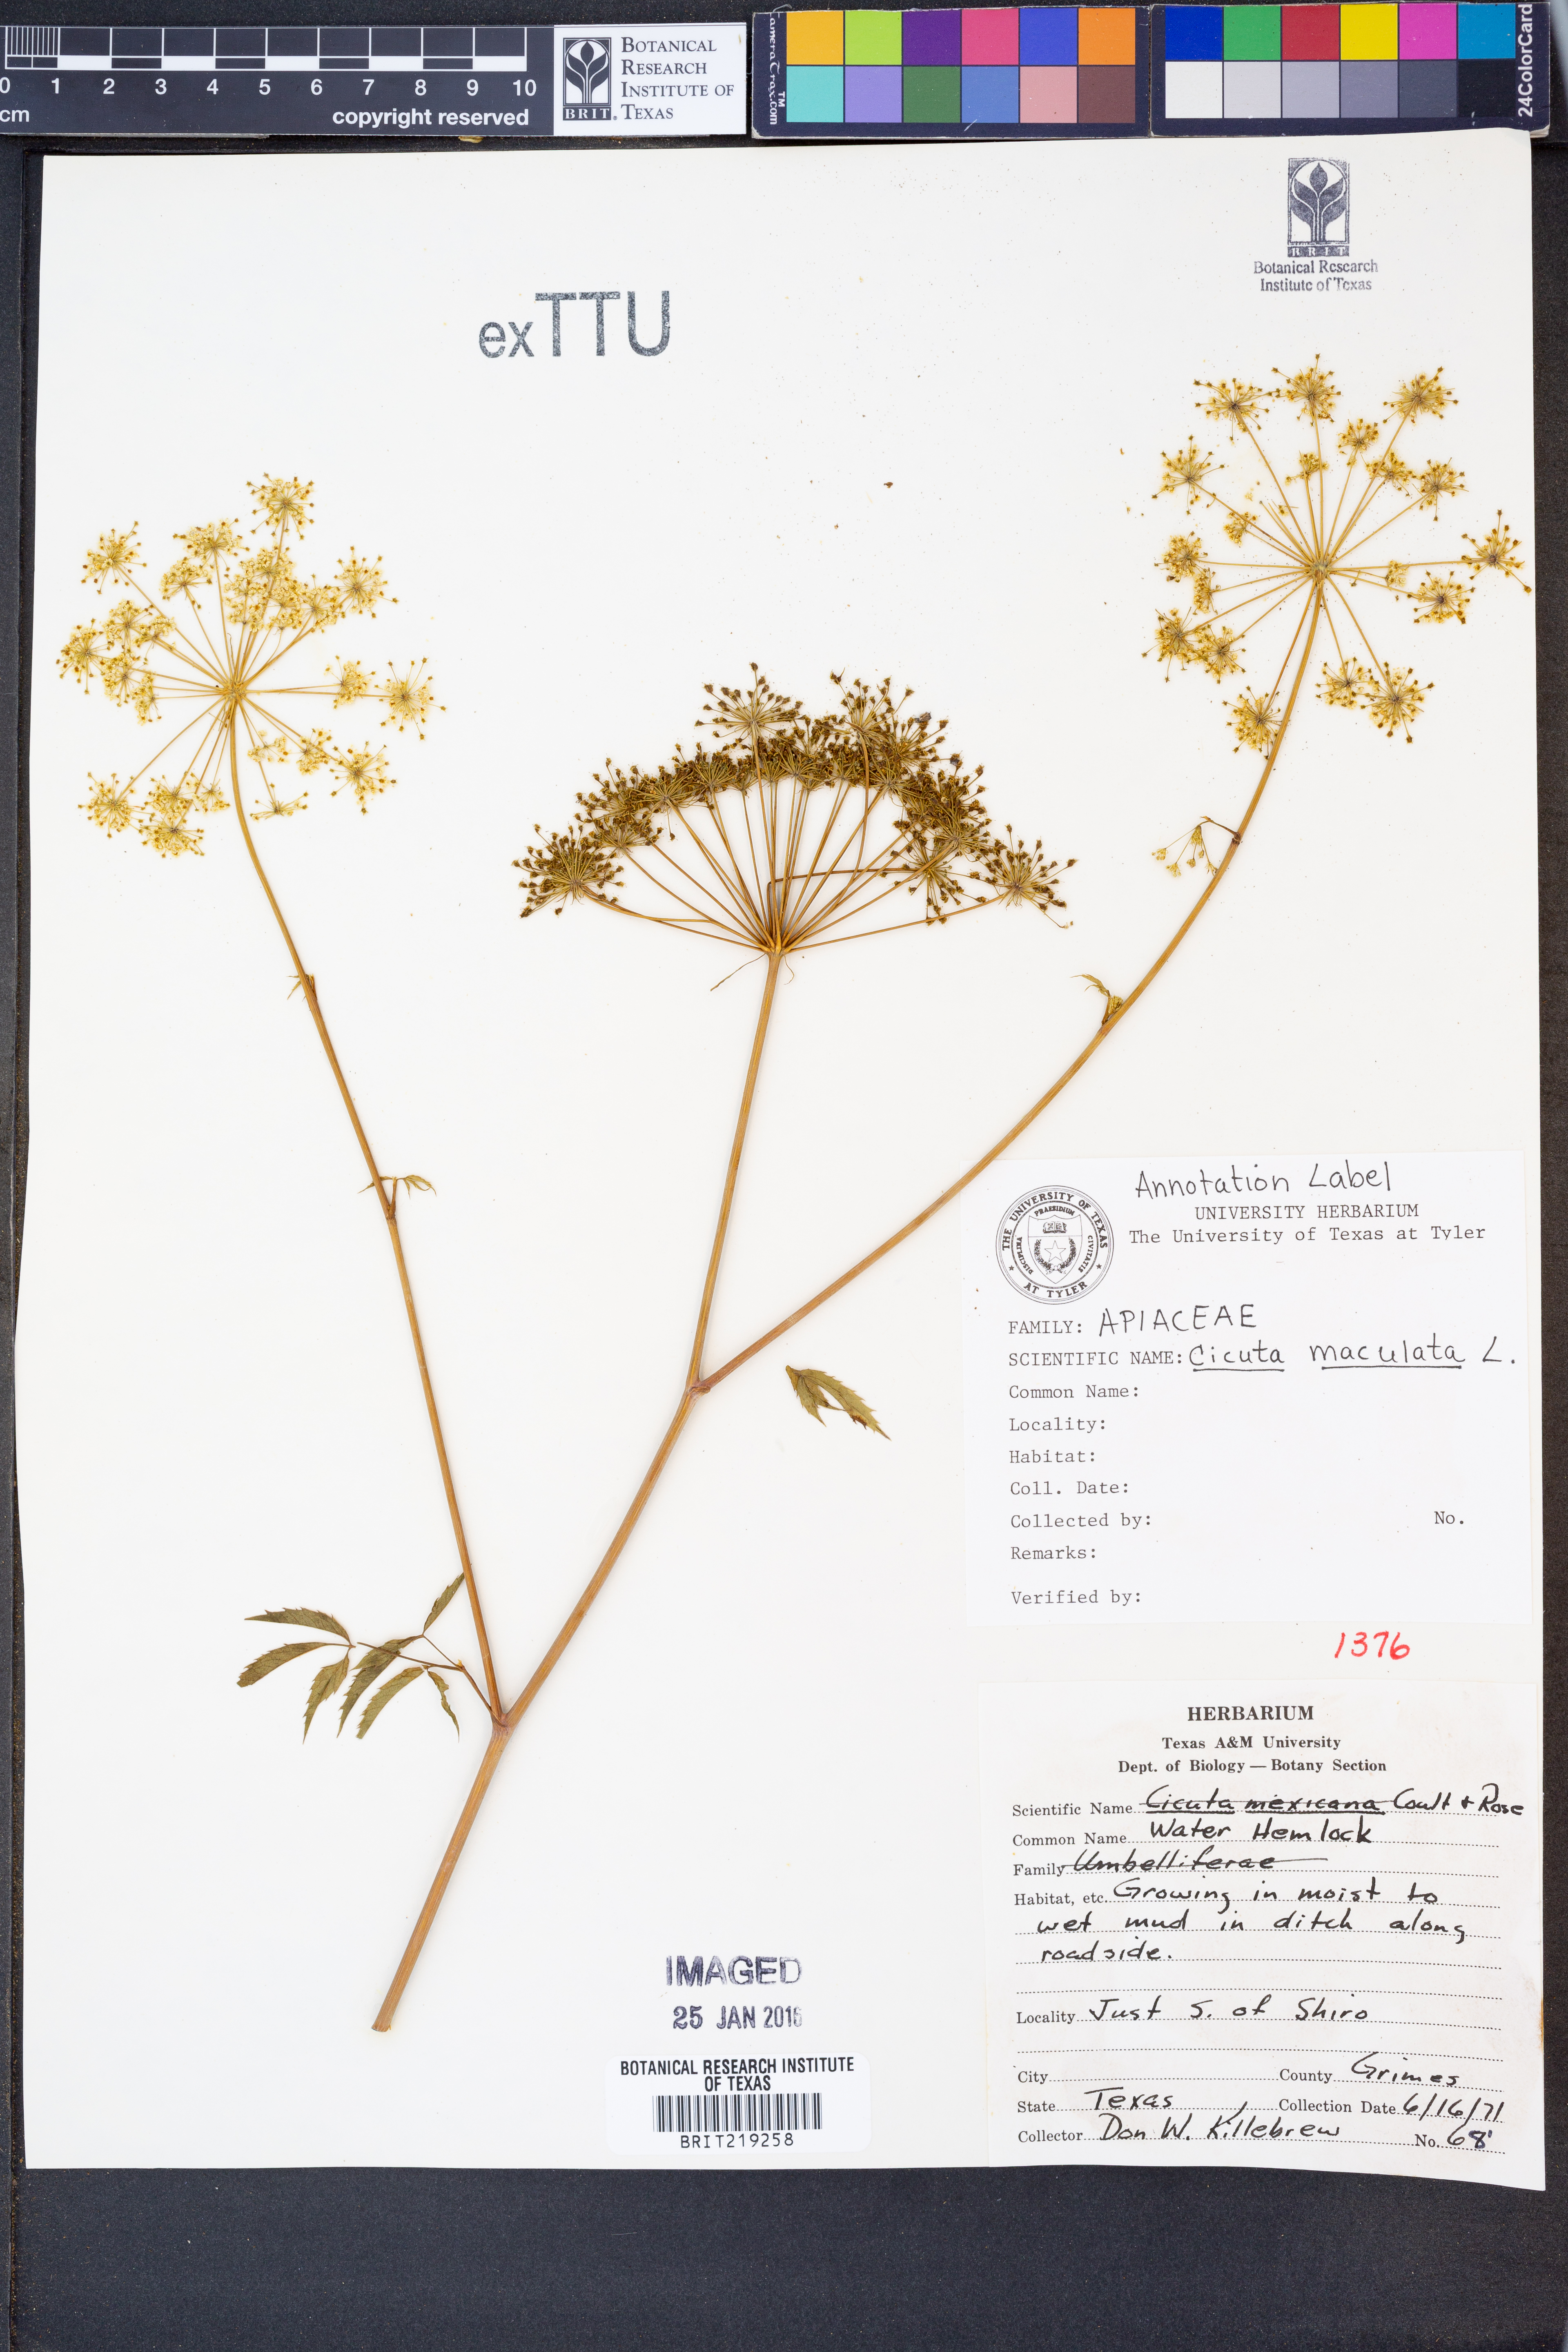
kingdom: Plantae
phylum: Tracheophyta
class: Magnoliopsida
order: Apiales
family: Apiaceae
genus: Cicuta
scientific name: Cicuta maculata
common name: Spotted cowbane
